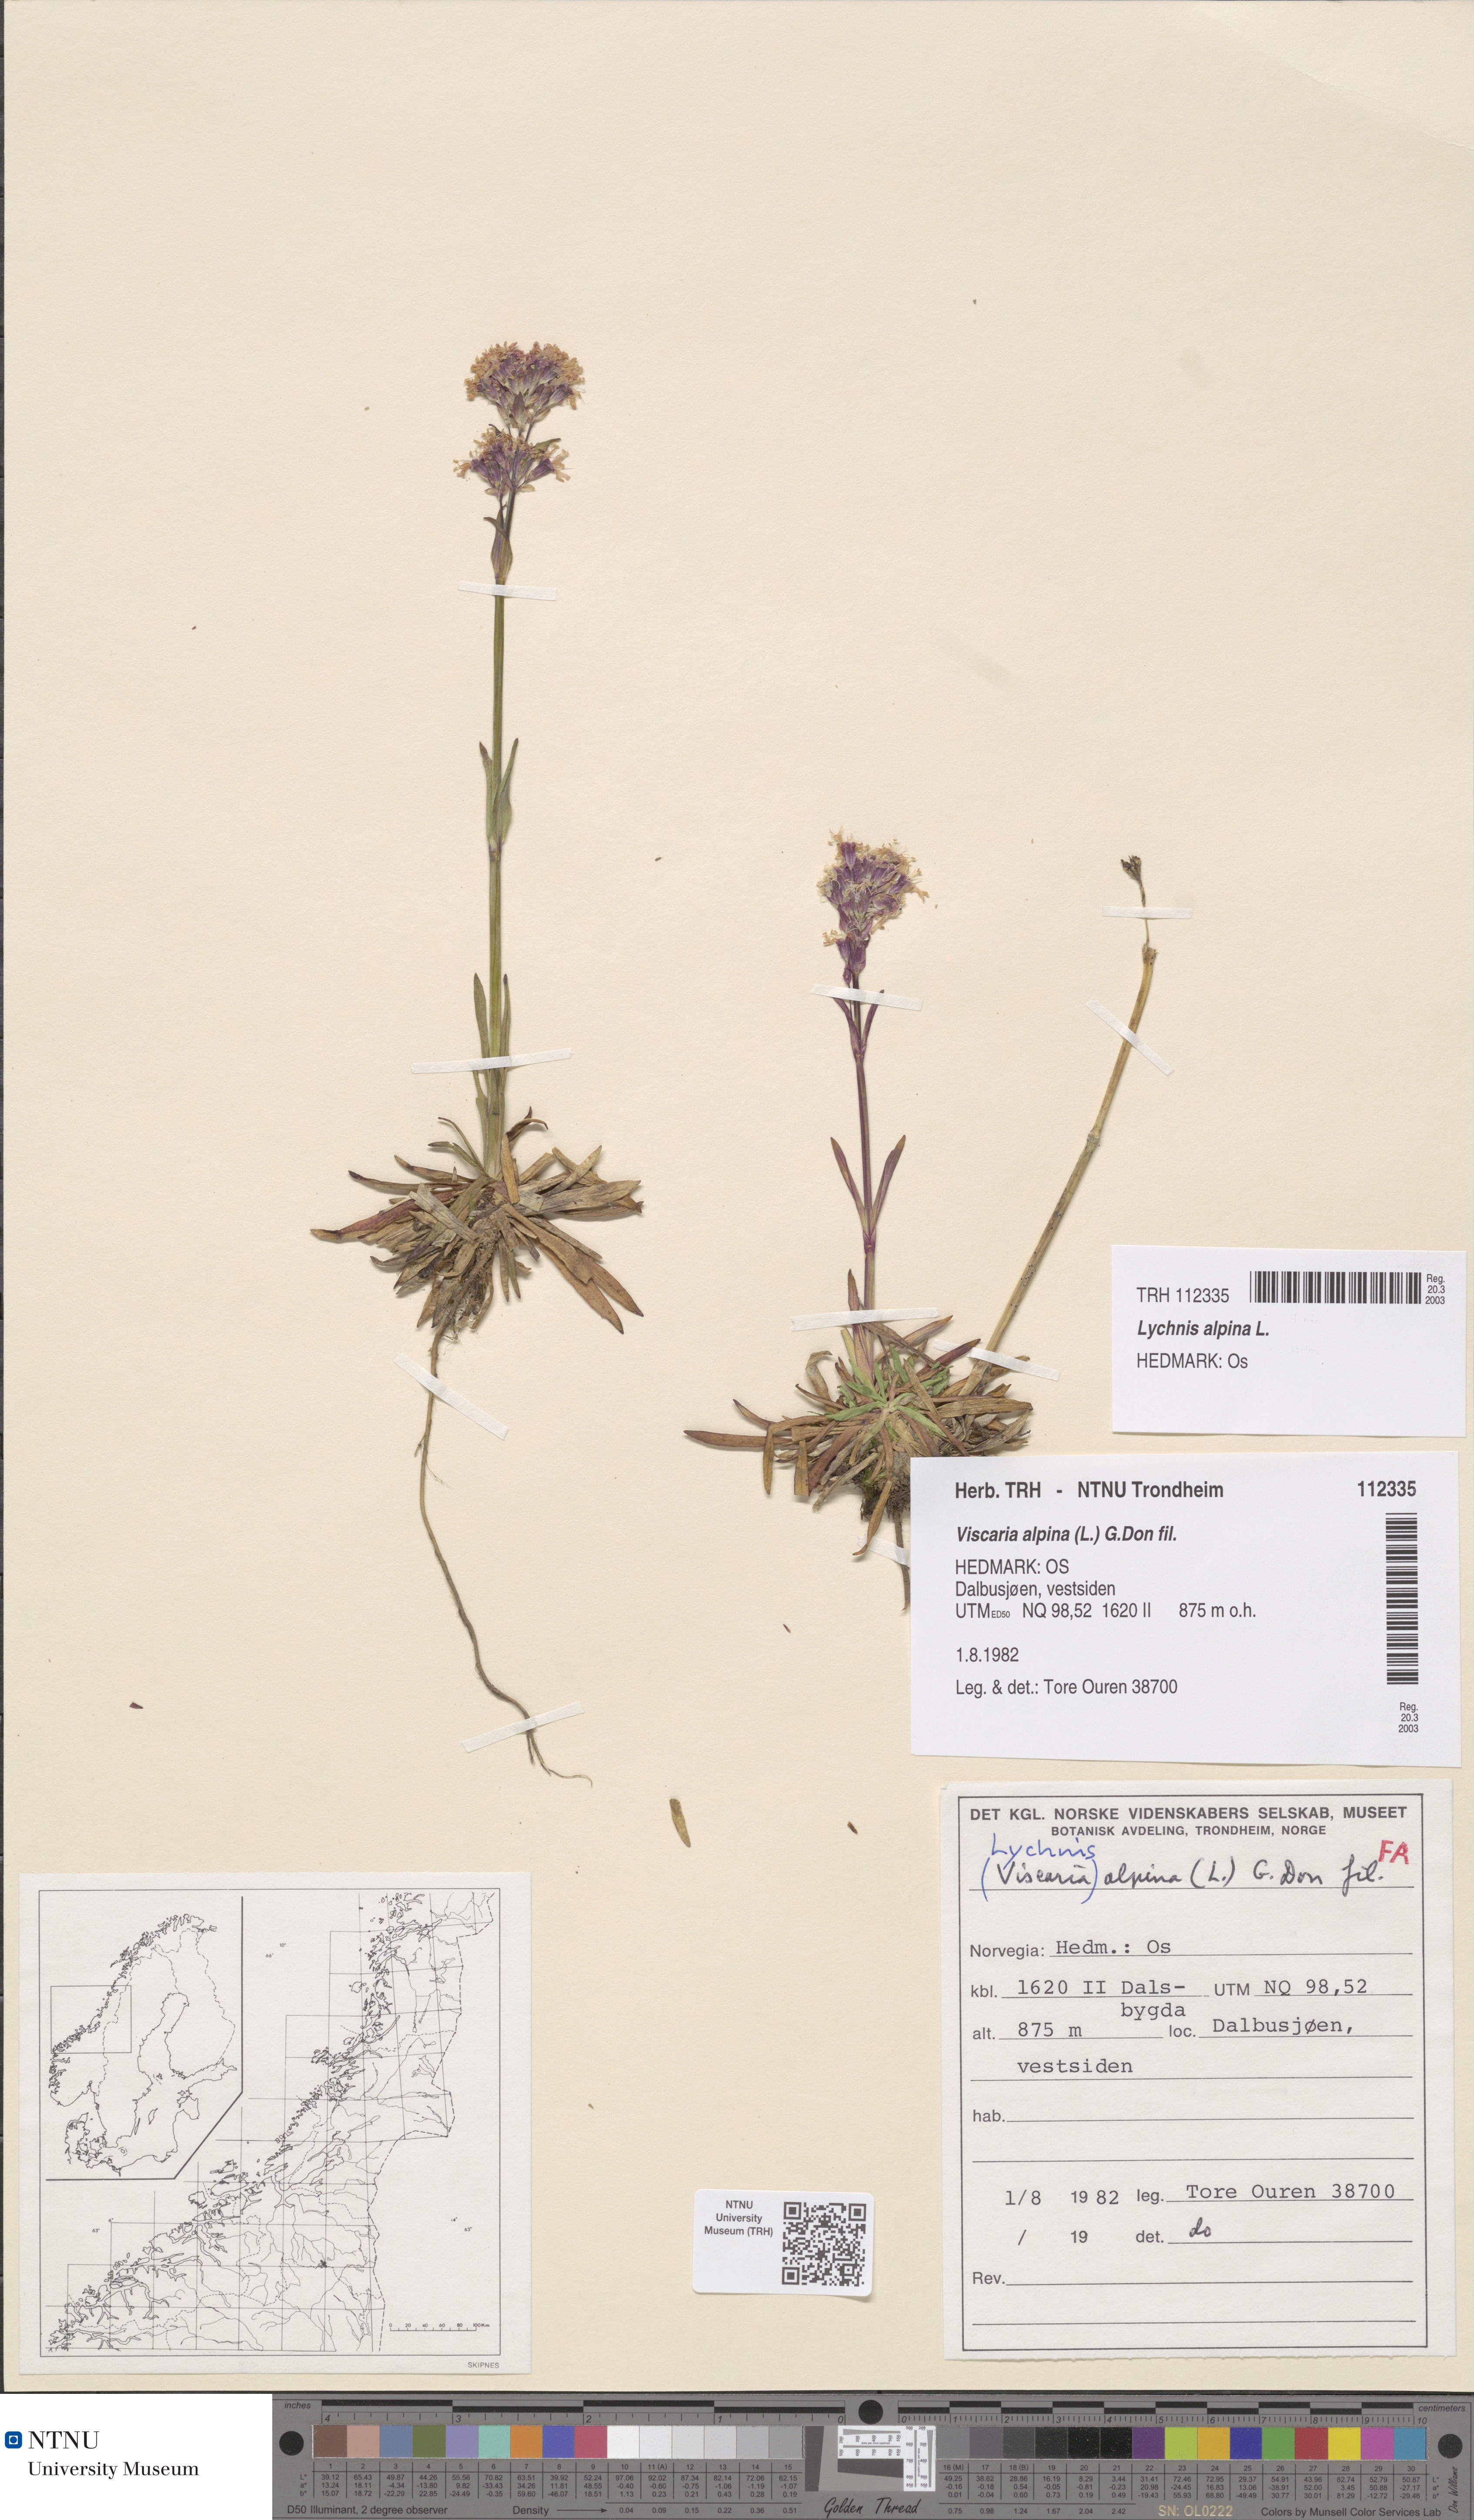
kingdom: Plantae
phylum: Tracheophyta
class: Magnoliopsida
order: Caryophyllales
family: Caryophyllaceae
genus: Viscaria
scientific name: Viscaria alpina
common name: Alpine campion
